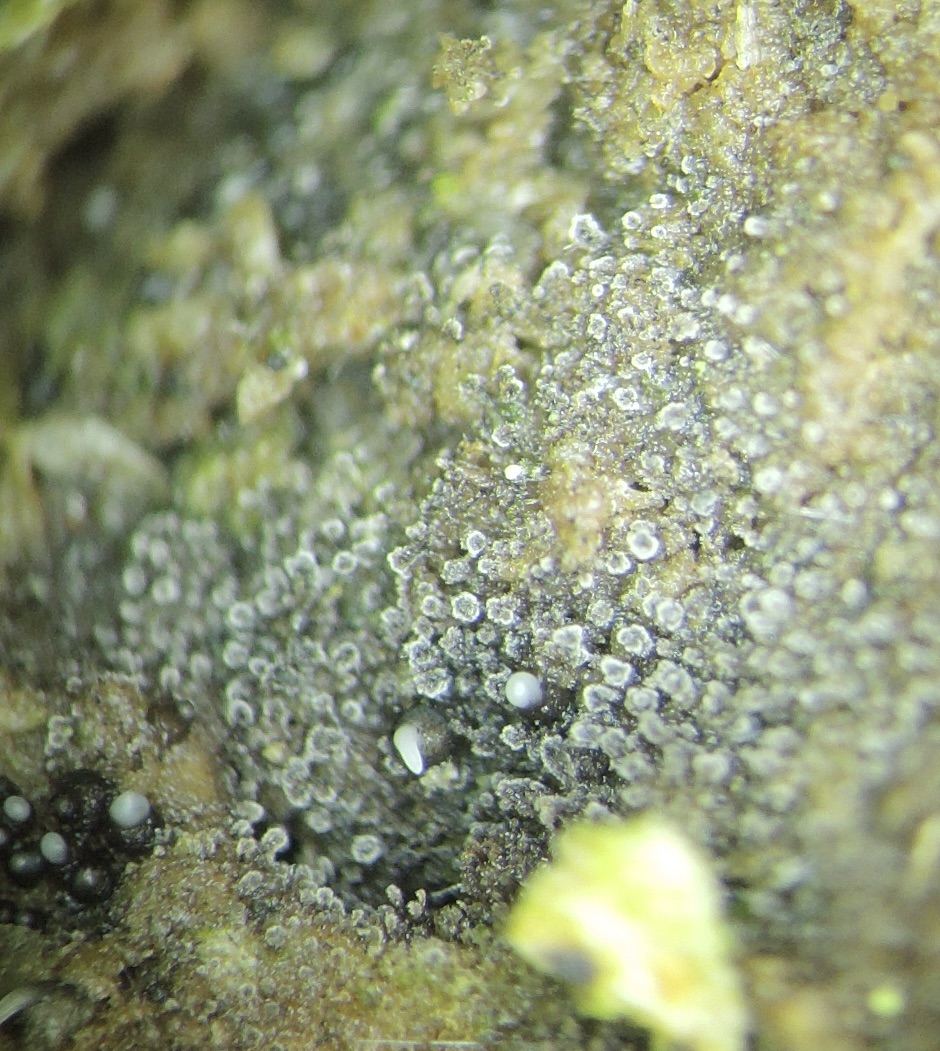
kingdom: Fungi
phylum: Ascomycota
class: Sordariomycetes
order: Xylariales
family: Diatrypaceae
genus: Phaeoisaria
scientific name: Phaeoisaria clematidis
